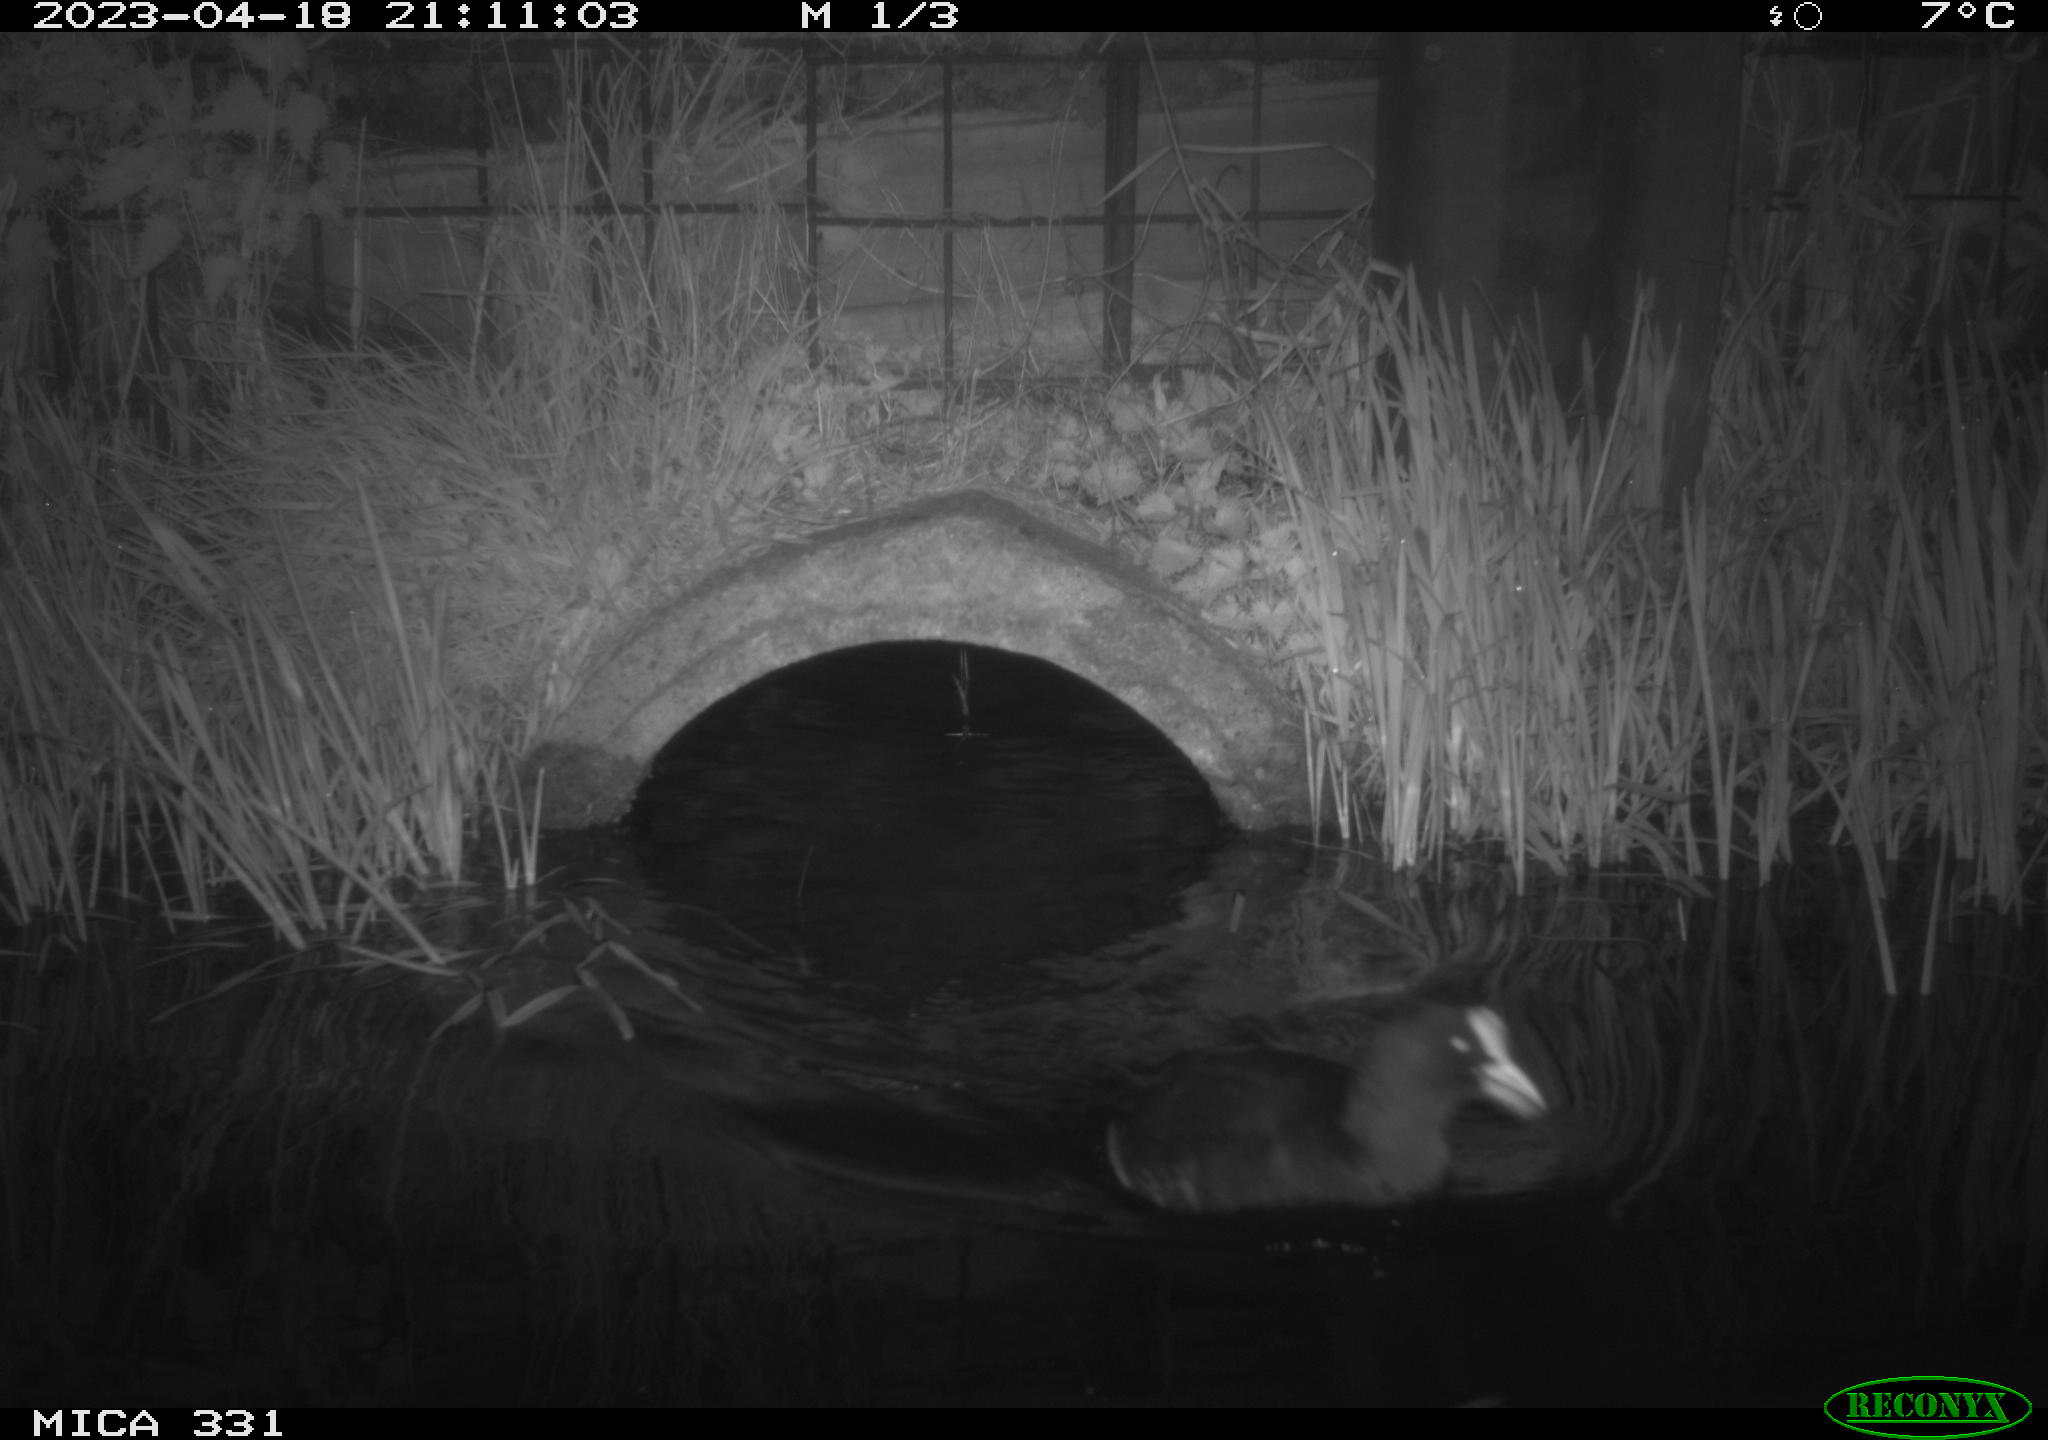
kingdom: Animalia
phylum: Chordata
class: Aves
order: Gruiformes
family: Rallidae
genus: Fulica
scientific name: Fulica atra
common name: Eurasian coot
